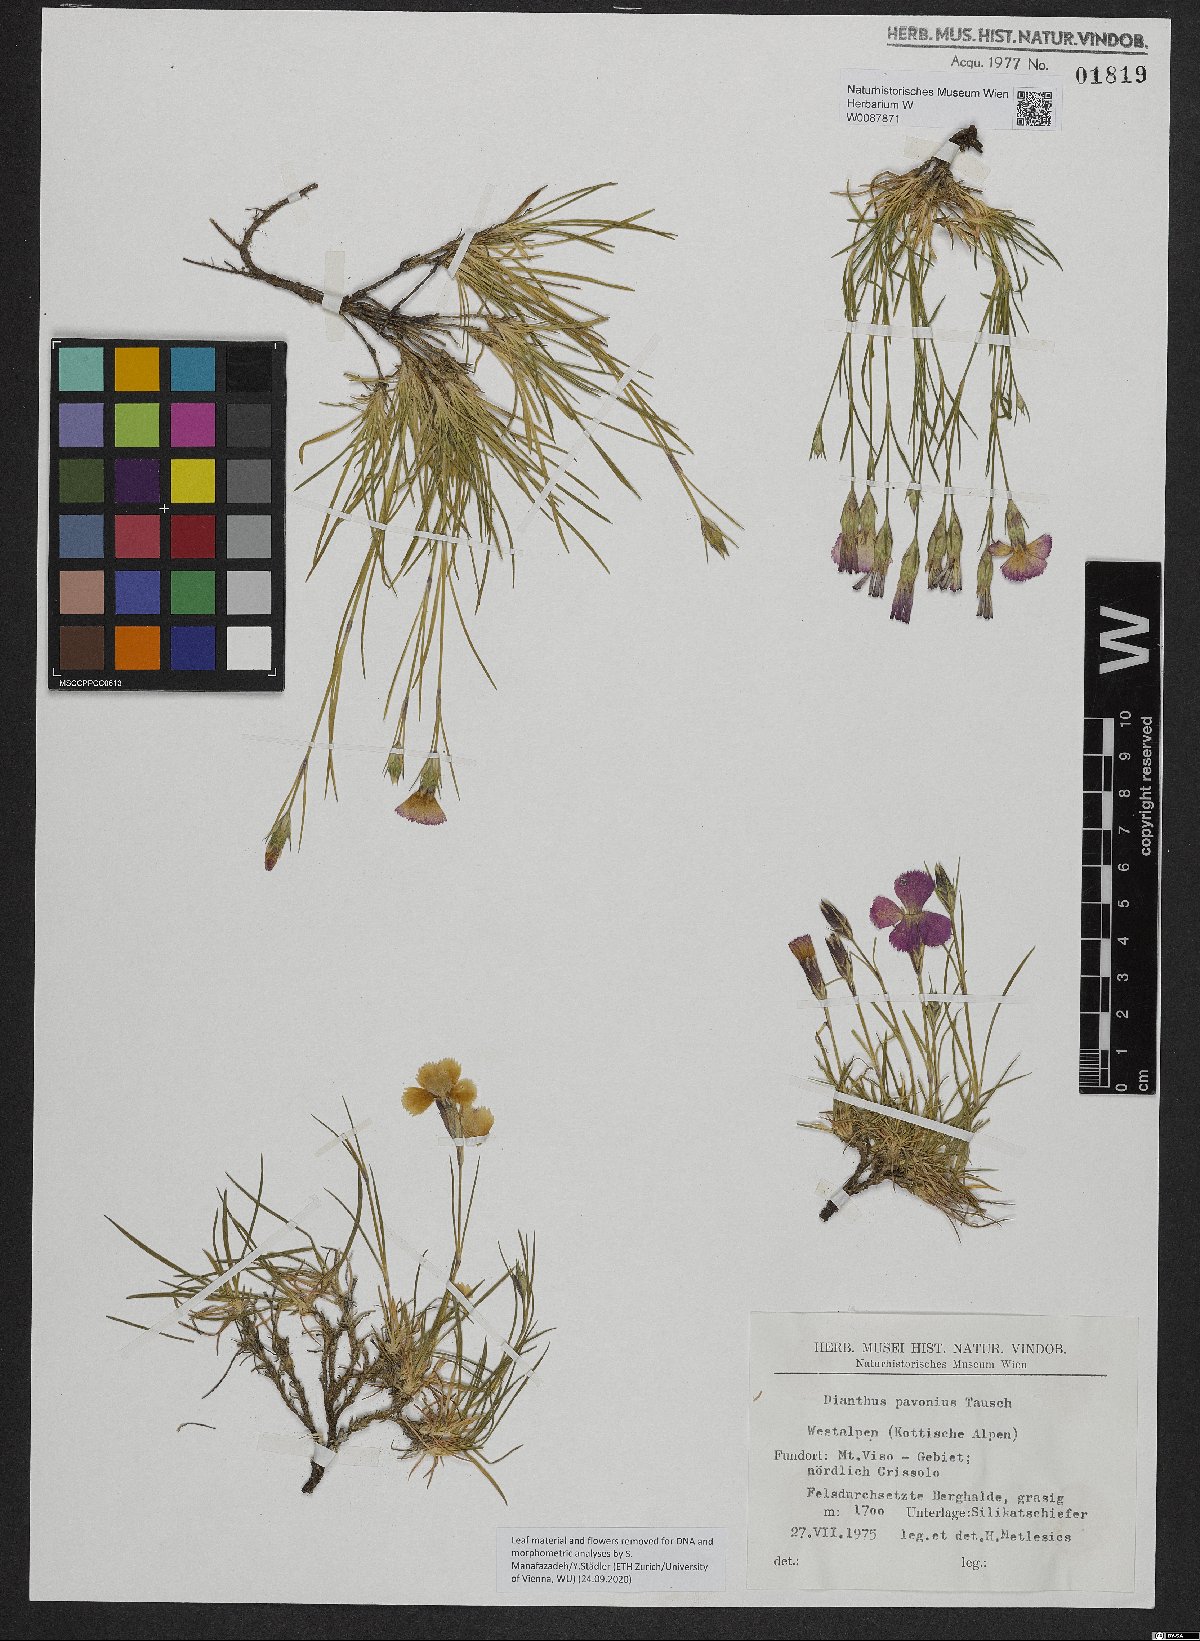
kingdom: Plantae
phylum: Tracheophyta
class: Magnoliopsida
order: Caryophyllales
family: Caryophyllaceae
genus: Dianthus
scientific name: Dianthus pavonius
